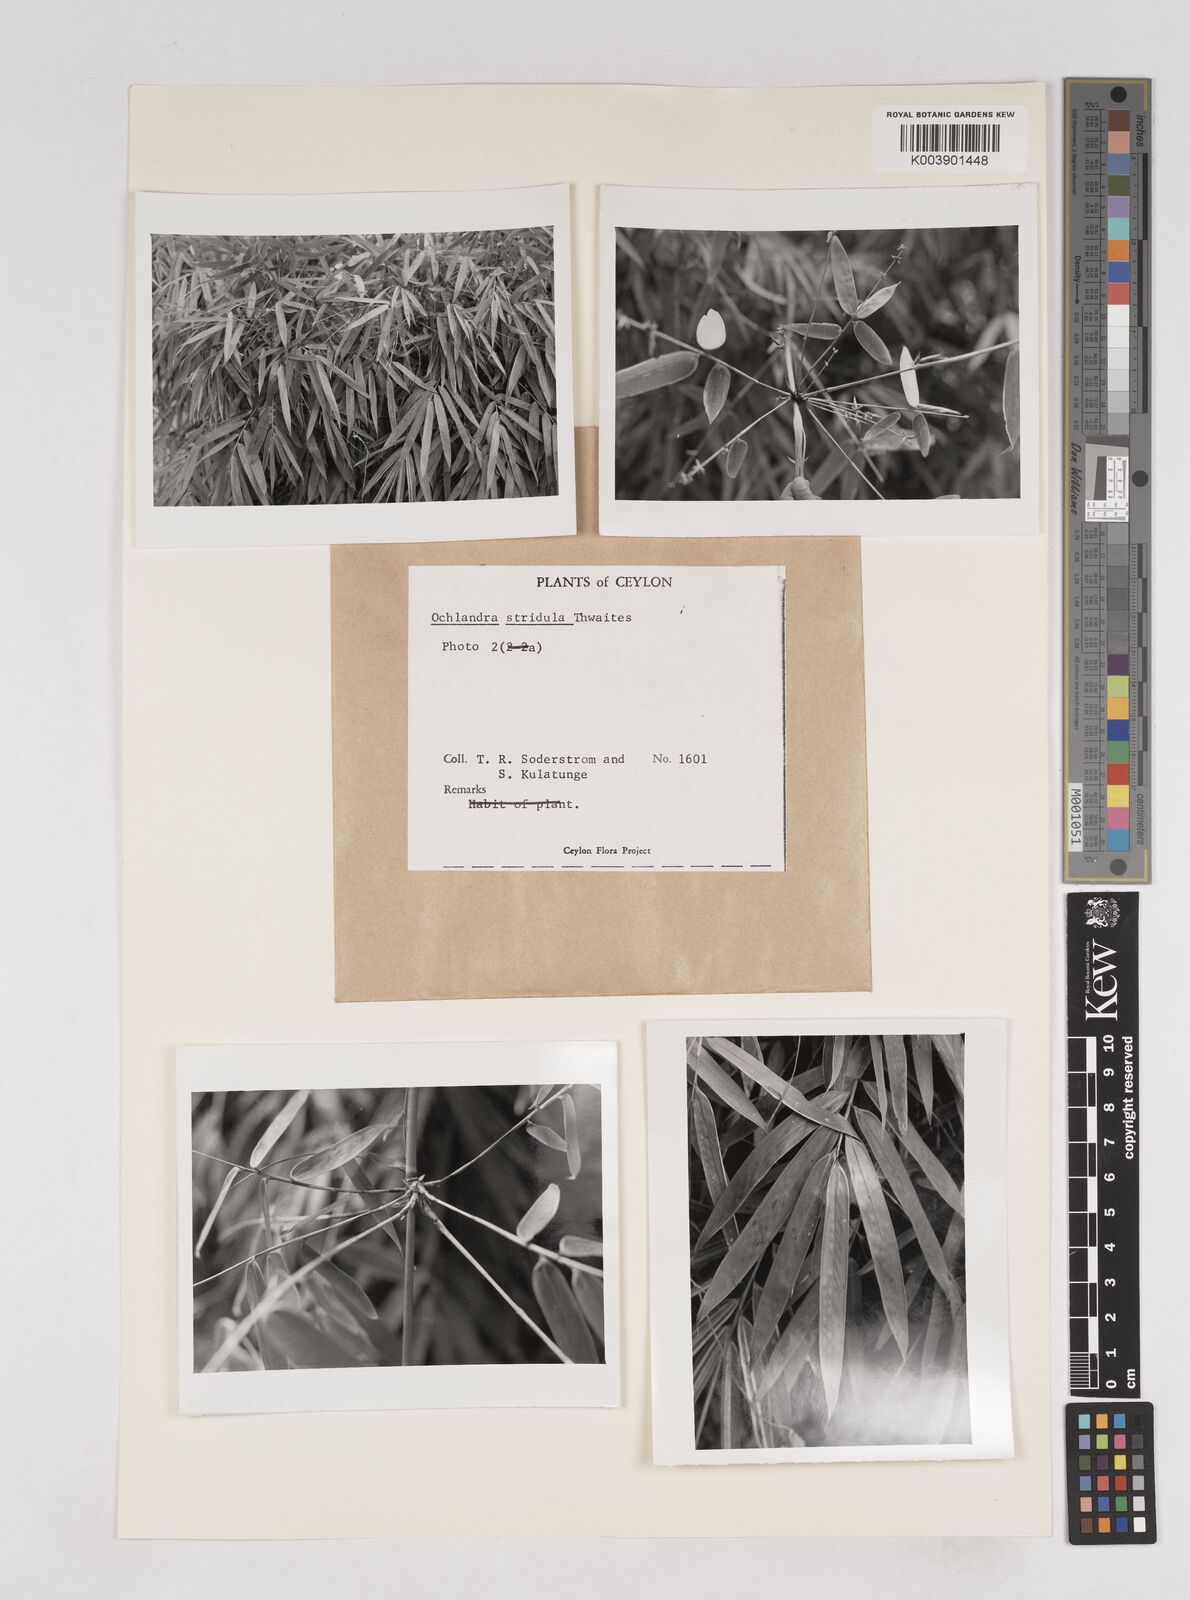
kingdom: Plantae
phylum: Tracheophyta
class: Liliopsida
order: Poales
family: Poaceae
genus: Ochlandra
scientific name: Ochlandra stridula
